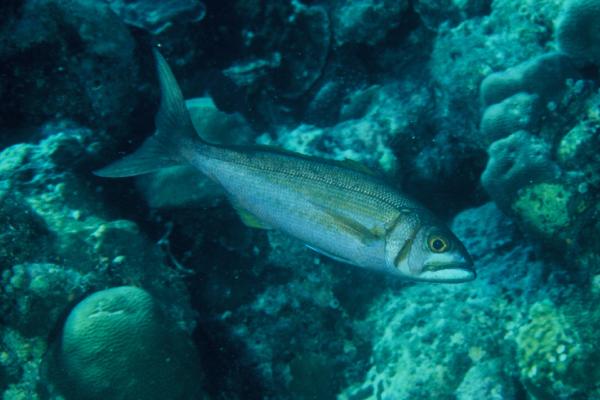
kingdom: Animalia
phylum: Chordata
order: Perciformes
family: Lutjanidae
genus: Aphareus
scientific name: Aphareus furca
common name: Smalltooth jobfish
